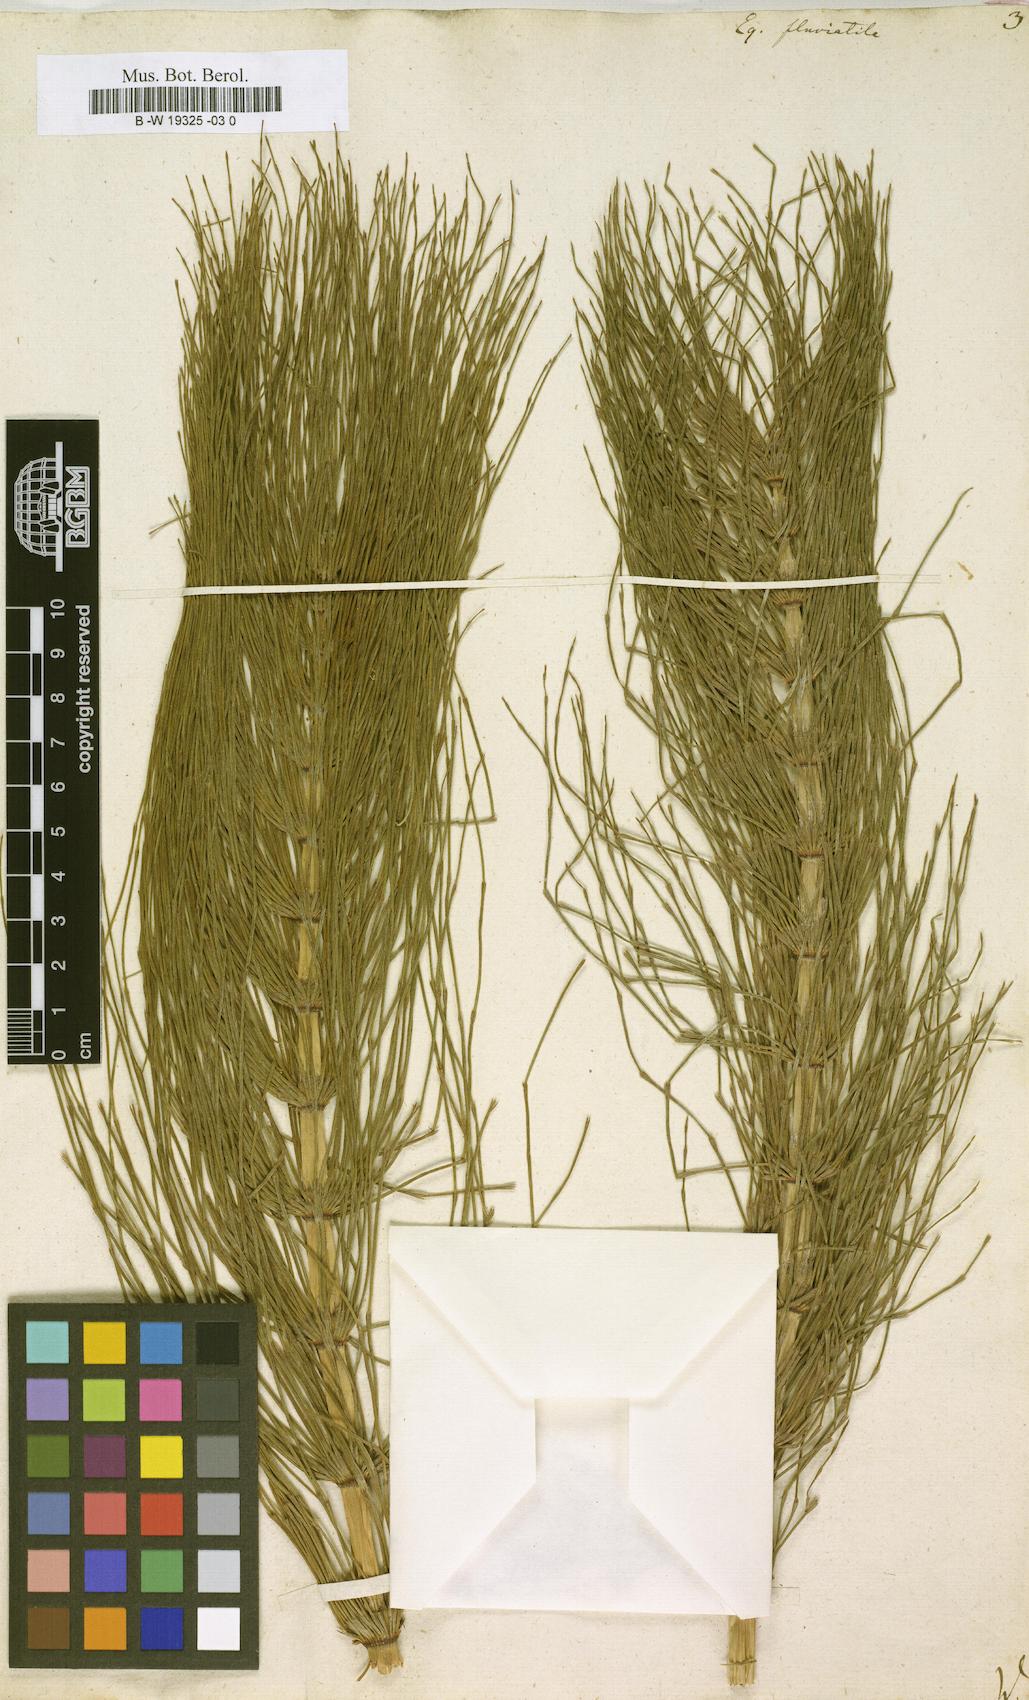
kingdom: Plantae
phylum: Tracheophyta
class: Polypodiopsida
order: Equisetales
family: Equisetaceae
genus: Equisetum
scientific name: Equisetum fluviatile
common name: Water horsetail
